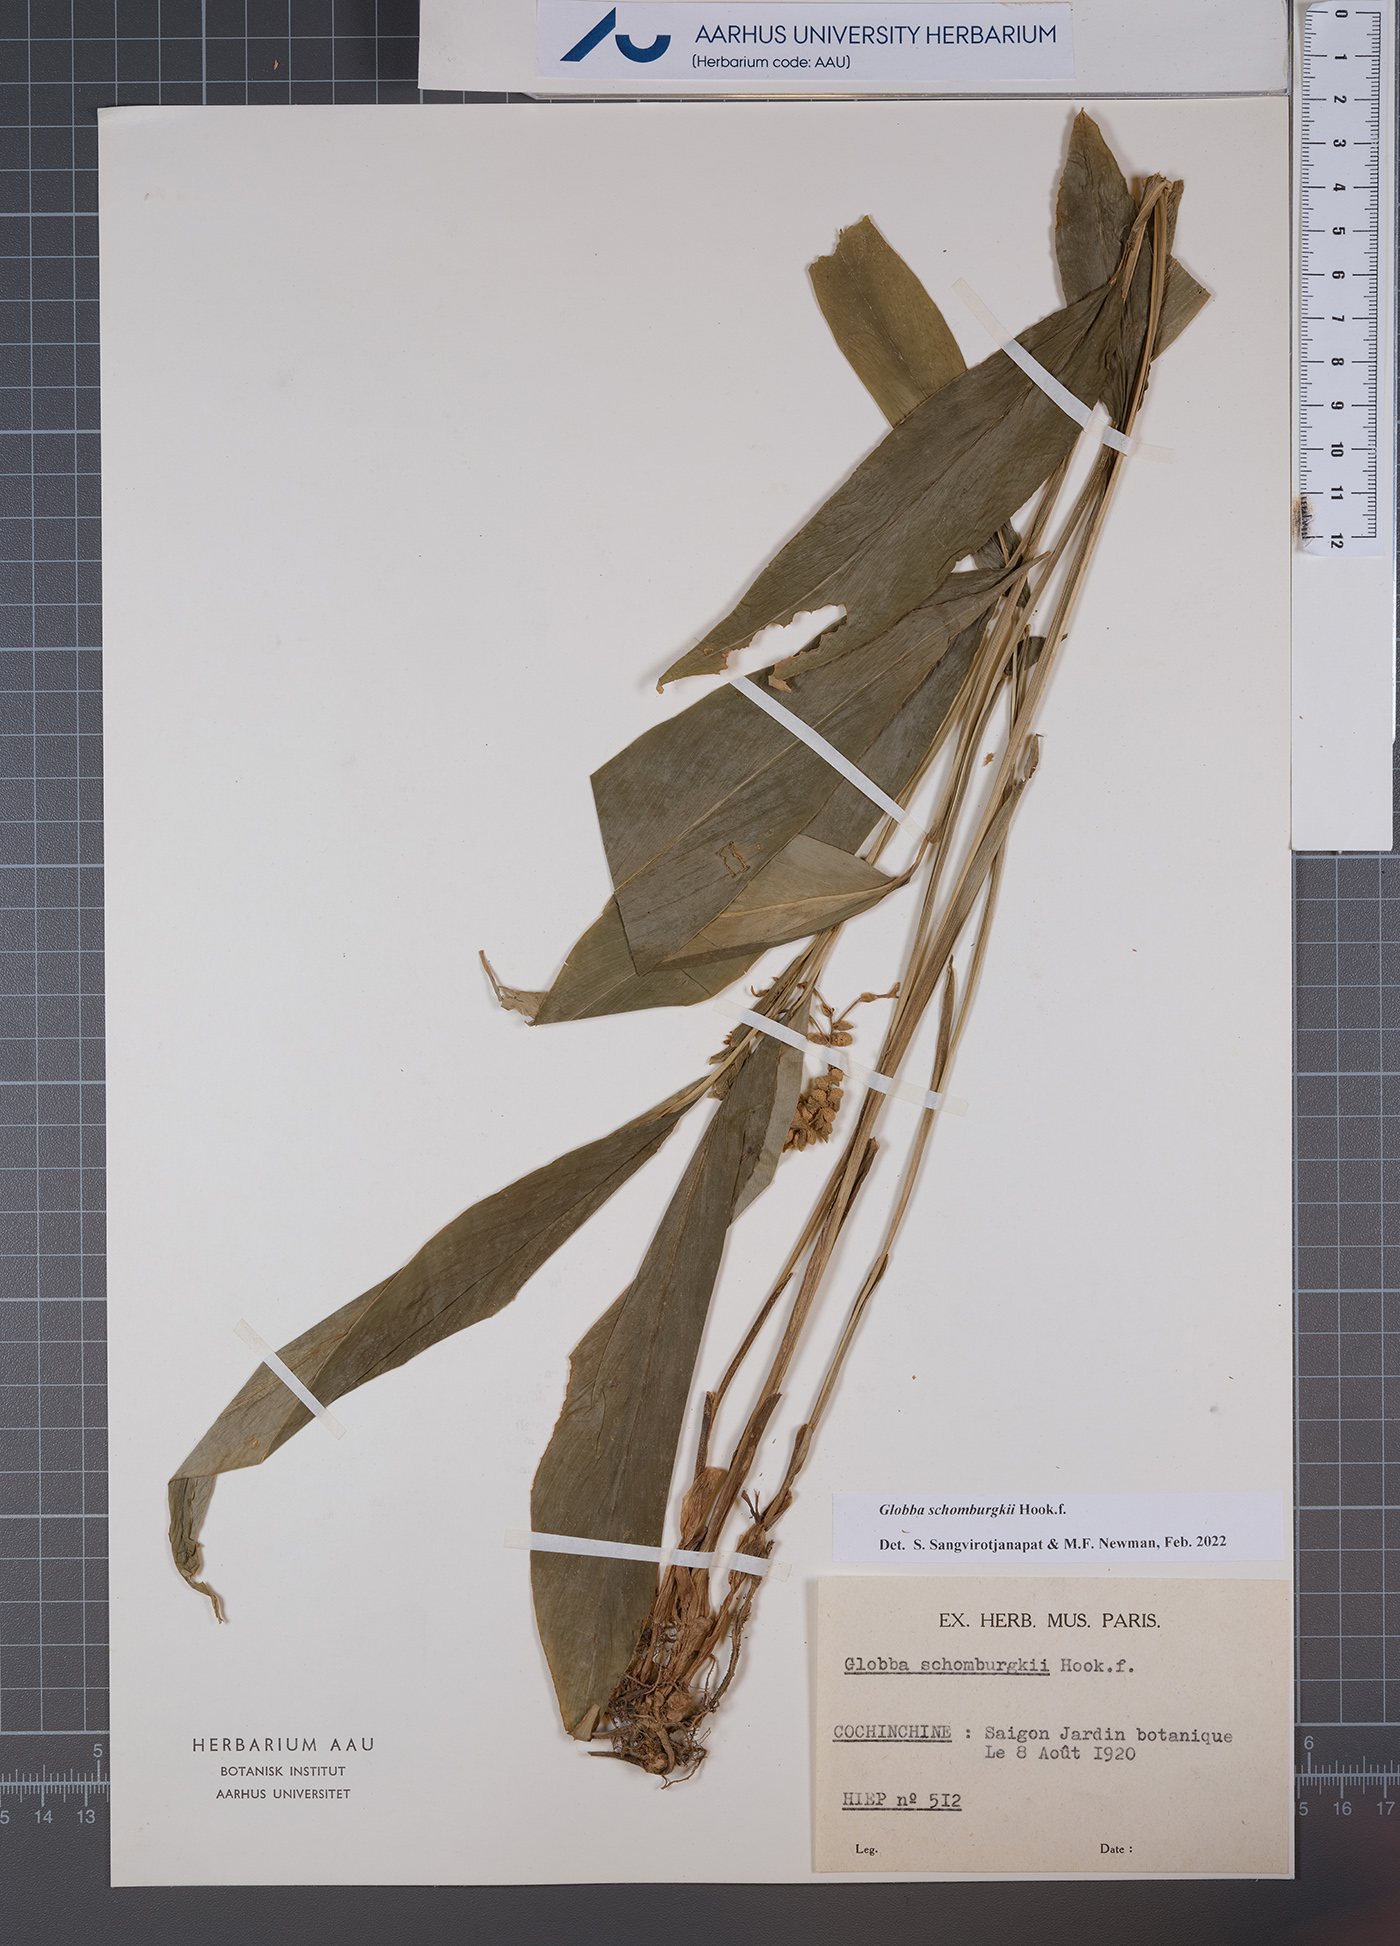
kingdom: Plantae
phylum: Tracheophyta
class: Liliopsida
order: Zingiberales
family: Zingiberaceae
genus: Globba
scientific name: Globba schomburgkii
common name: Dancing girl ginger
